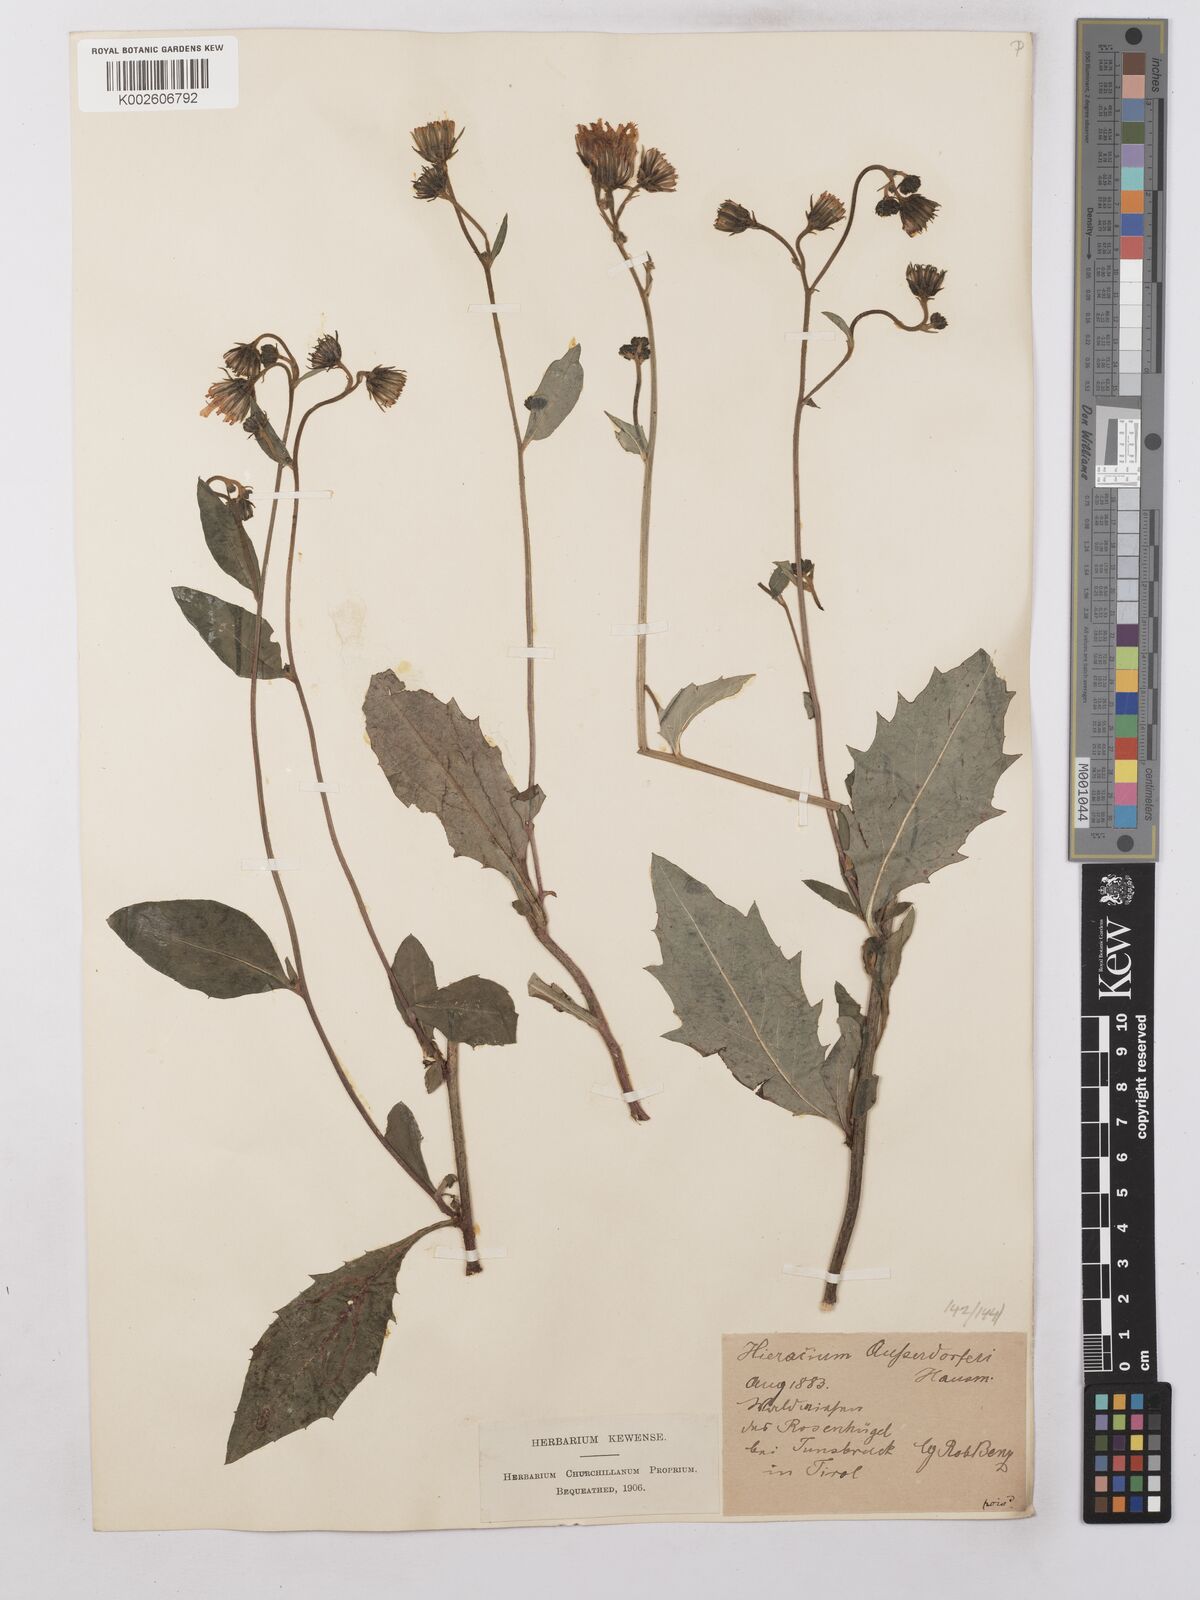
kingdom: Plantae
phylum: Tracheophyta
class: Magnoliopsida
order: Asterales
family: Asteraceae
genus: Hieracium
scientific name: Hieracium lachenalii
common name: Common hawkweed
